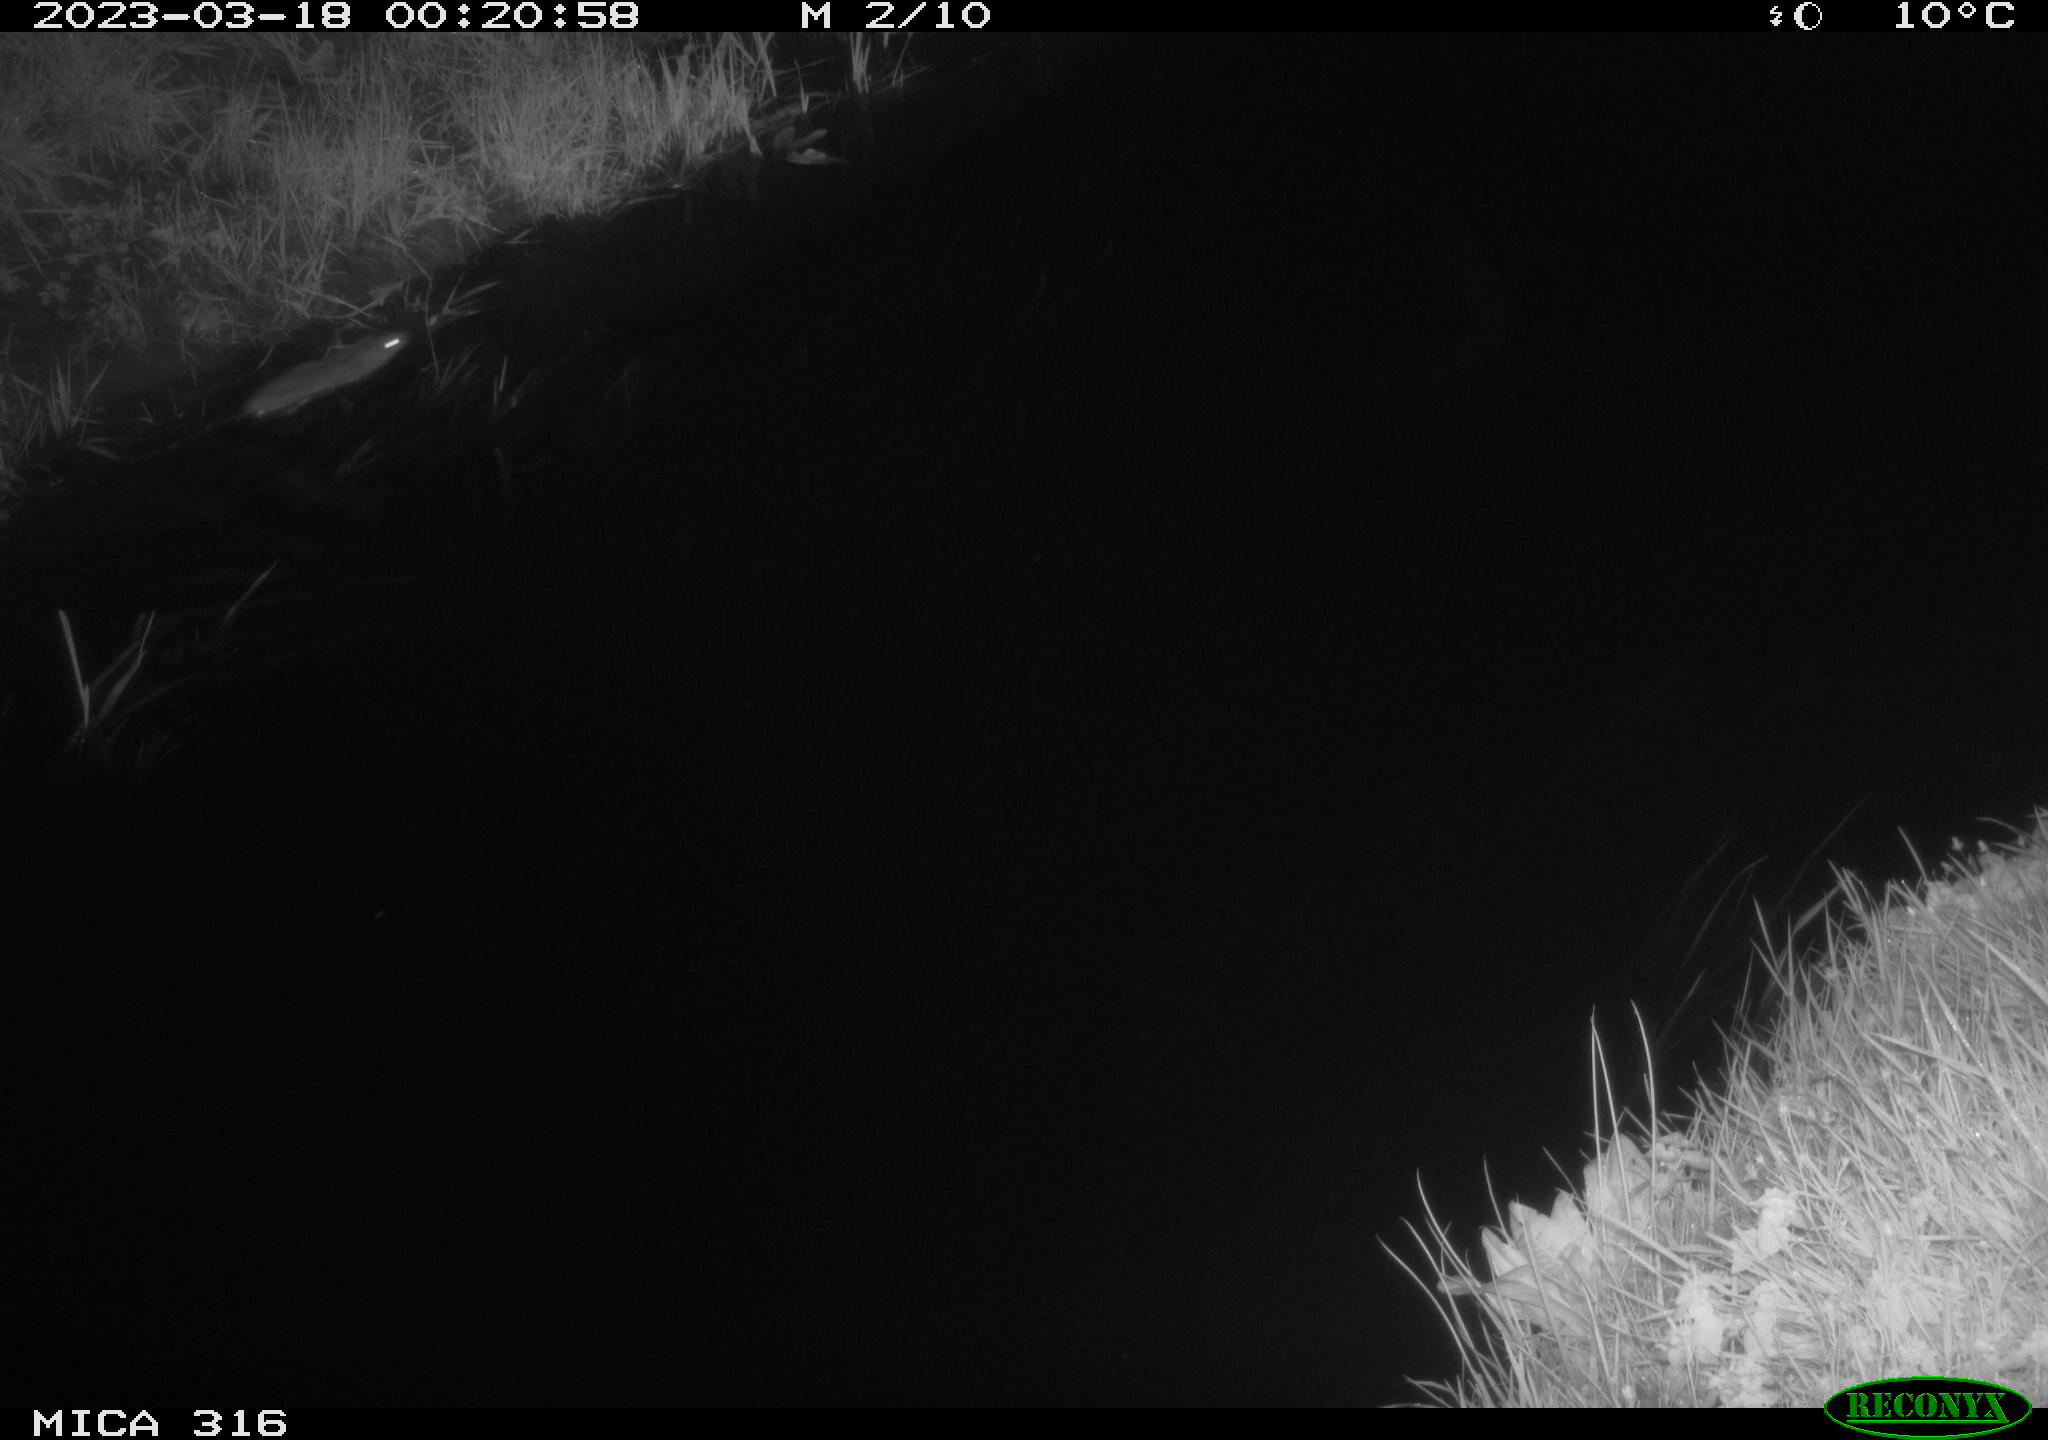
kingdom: Animalia
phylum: Chordata
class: Mammalia
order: Rodentia
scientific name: Rodentia
